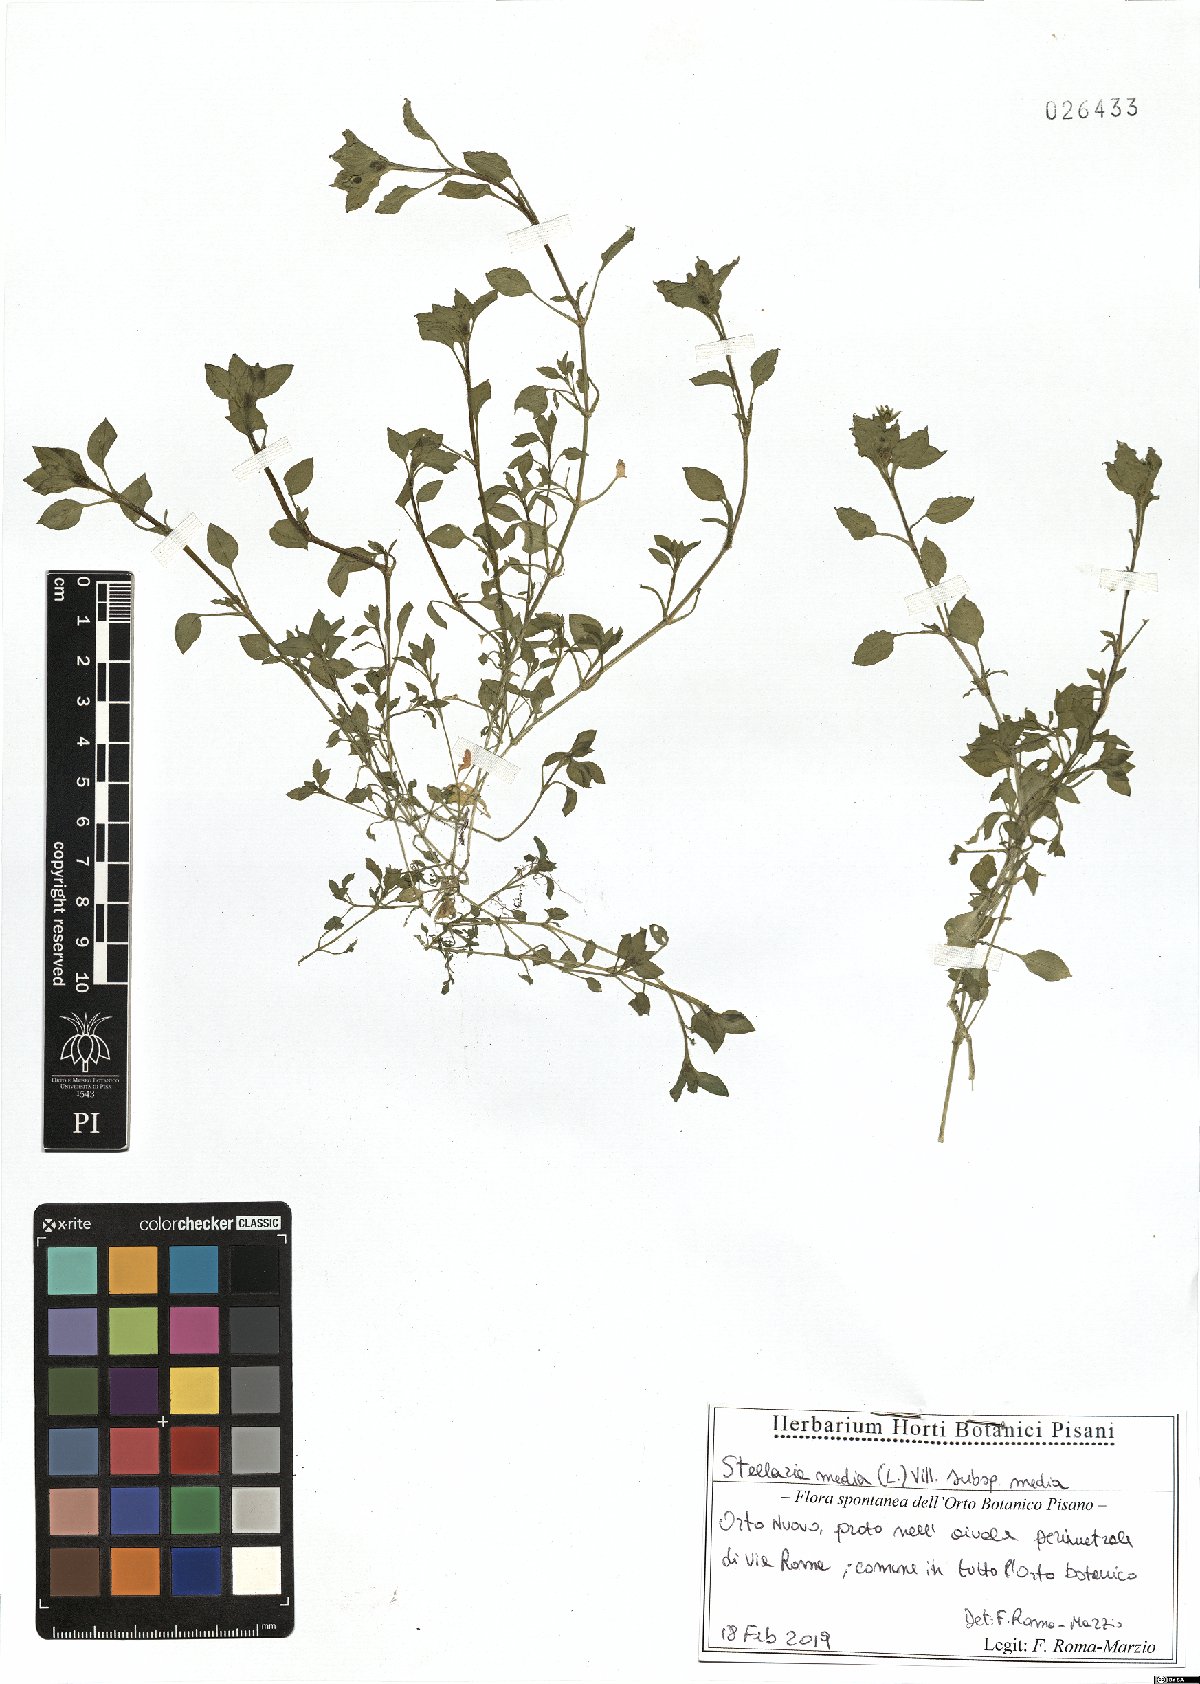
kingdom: Plantae
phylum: Tracheophyta
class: Magnoliopsida
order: Caryophyllales
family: Caryophyllaceae
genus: Stellaria
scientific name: Stellaria media
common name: Common chickweed
